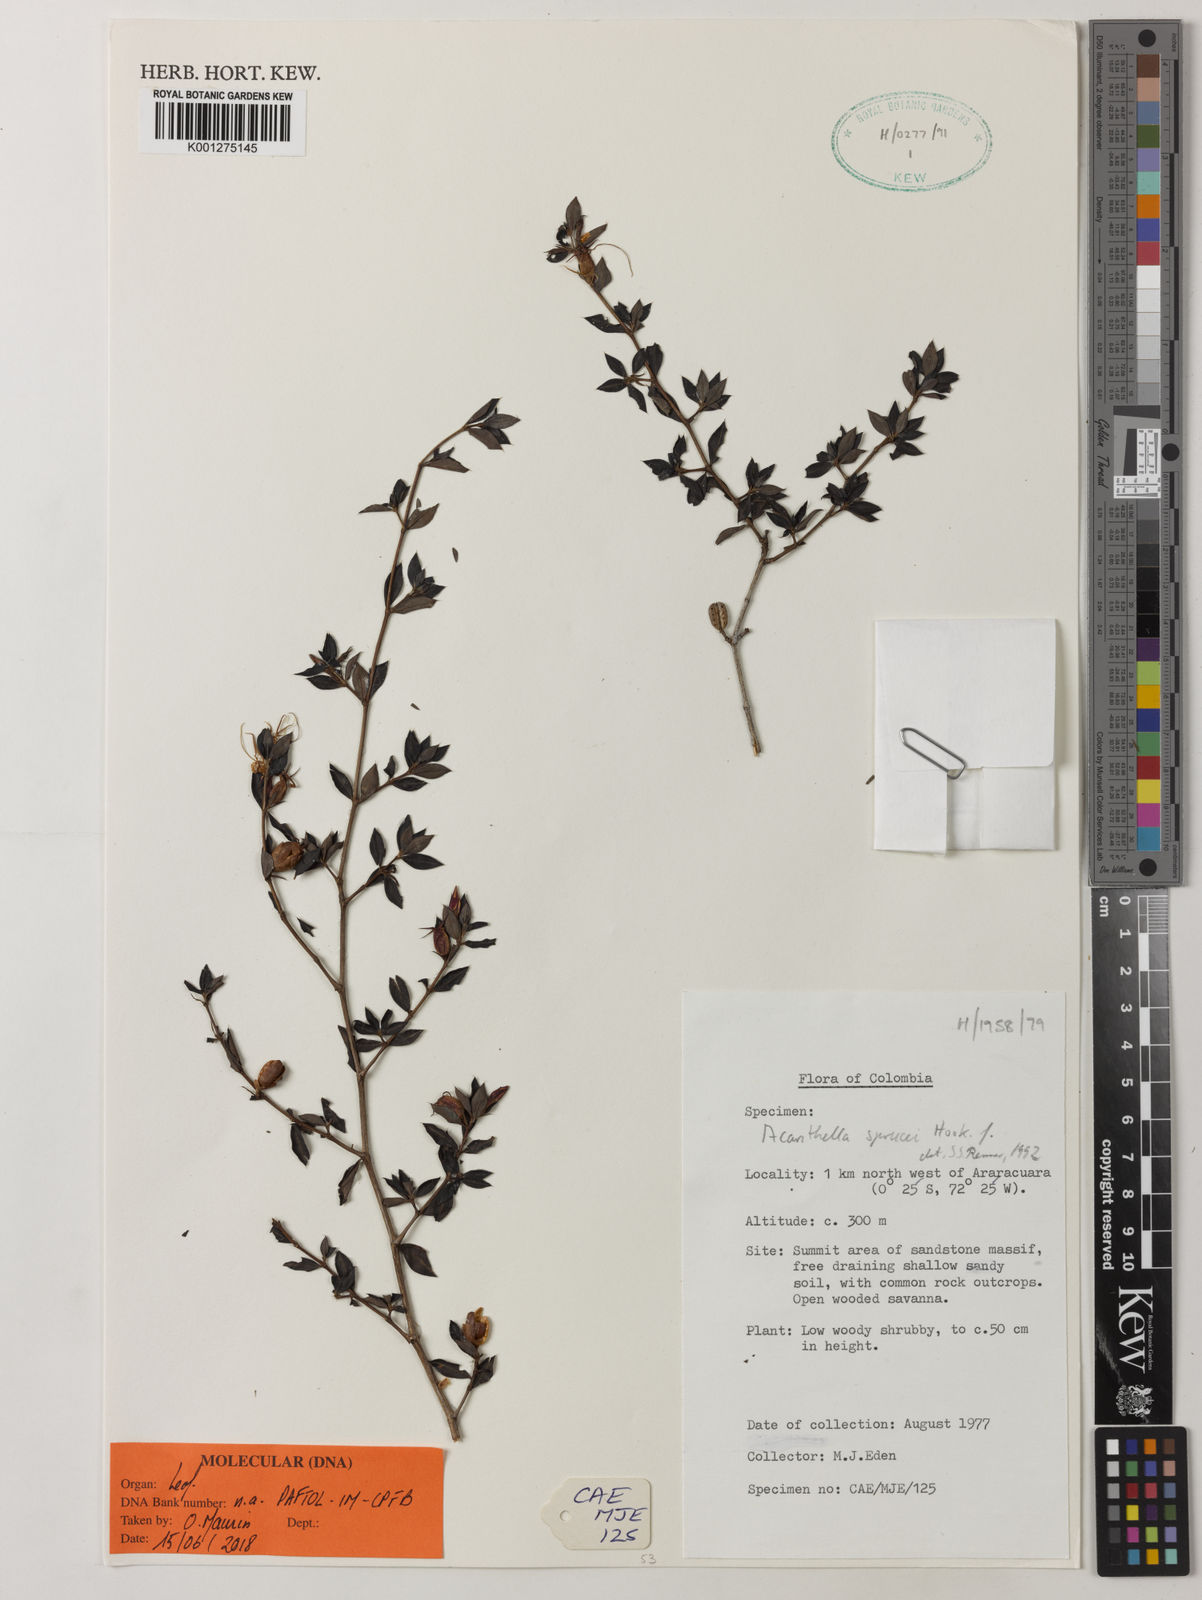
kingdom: Plantae
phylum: Tracheophyta
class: Magnoliopsida
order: Myrtales
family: Melastomataceae
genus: Acanthella
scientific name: Acanthella sprucei
